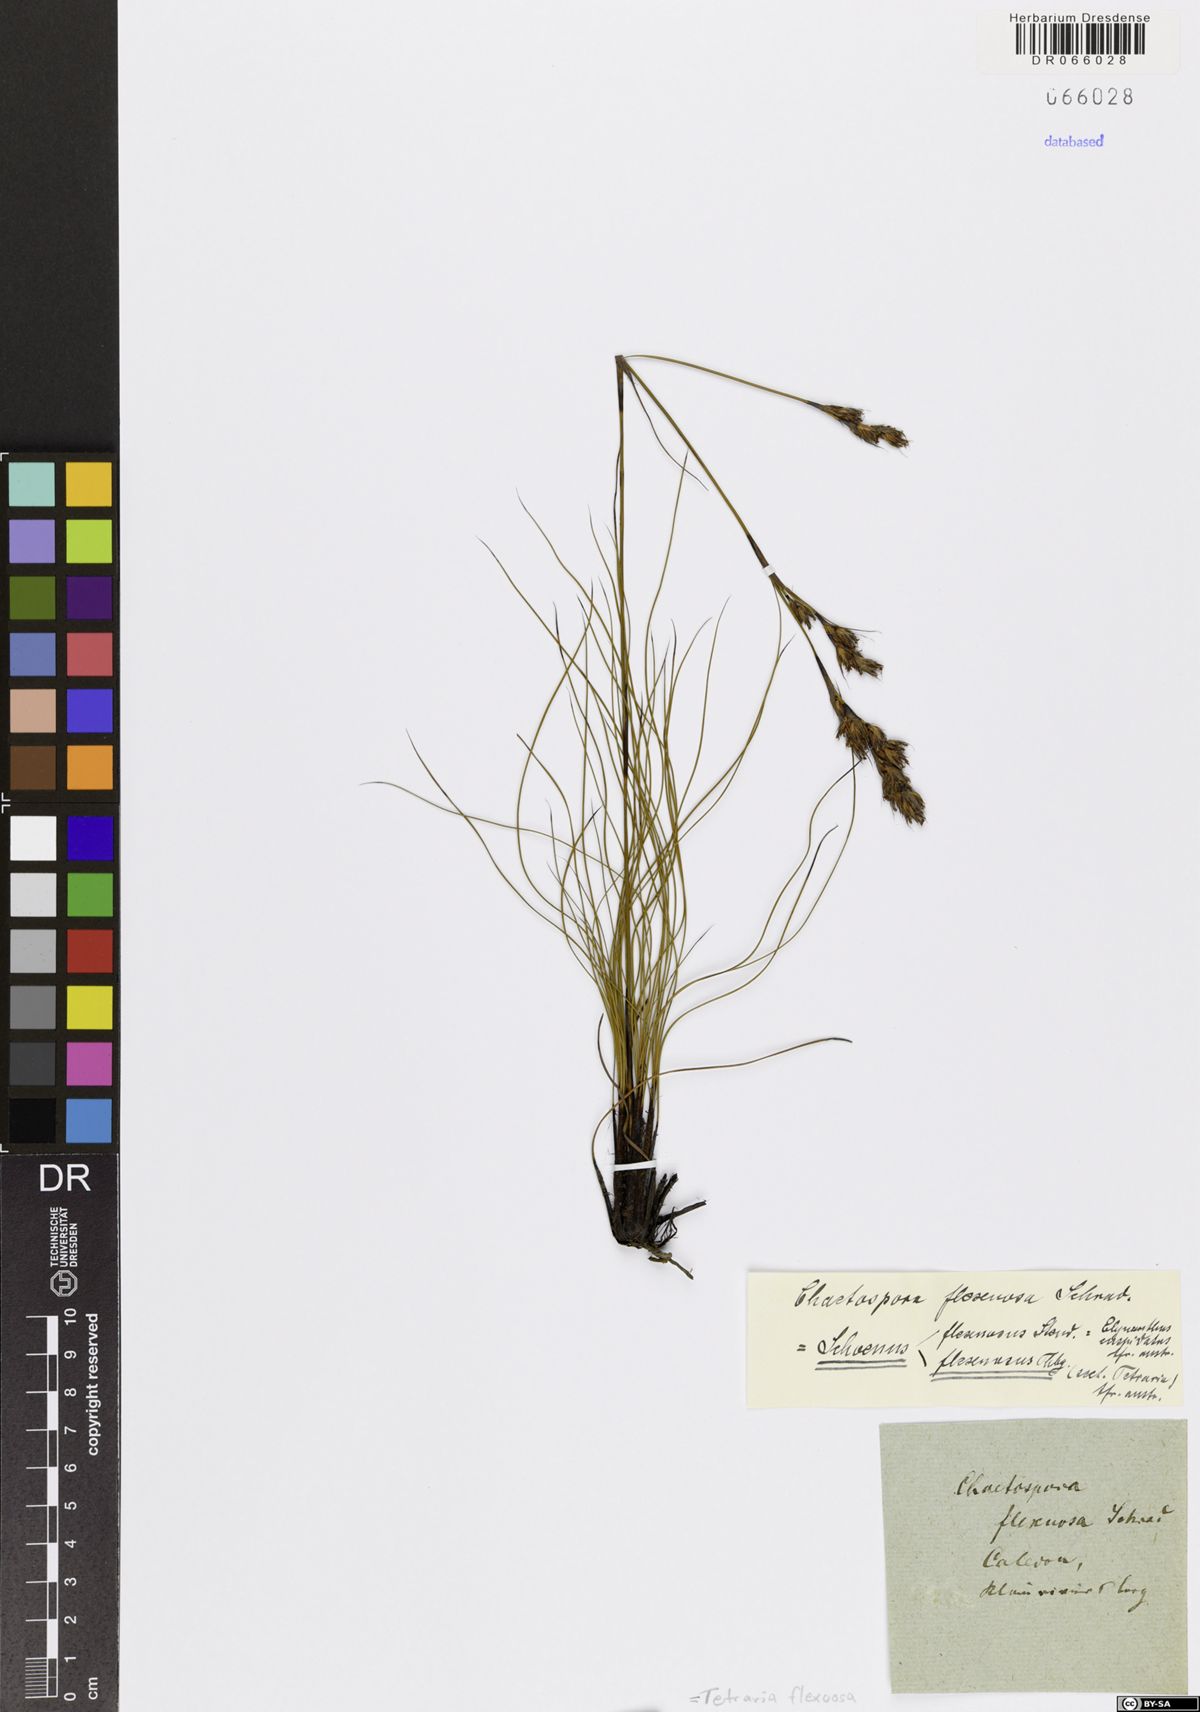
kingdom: Plantae
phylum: Tracheophyta
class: Liliopsida
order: Poales
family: Cyperaceae
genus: Tetraria
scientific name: Tetraria flexuosa
